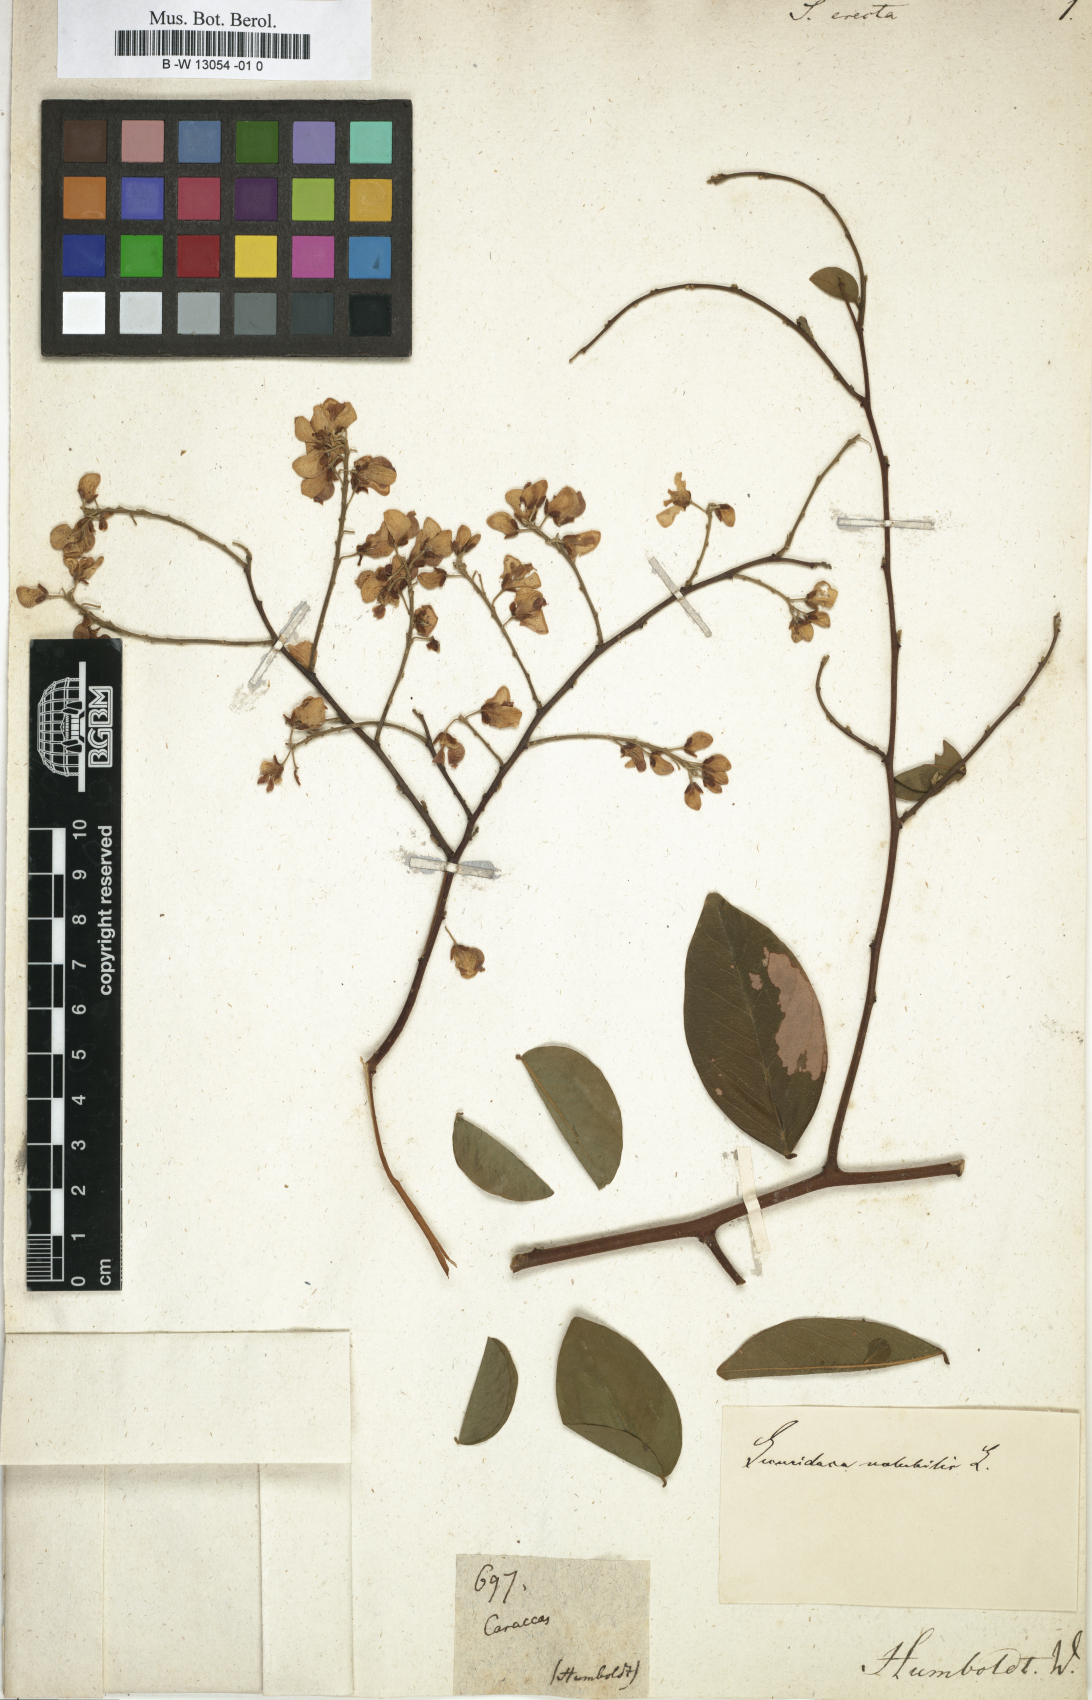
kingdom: Plantae
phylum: Tracheophyta
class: Magnoliopsida
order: Fabales
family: Polygalaceae
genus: Securidaca
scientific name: Securidaca
